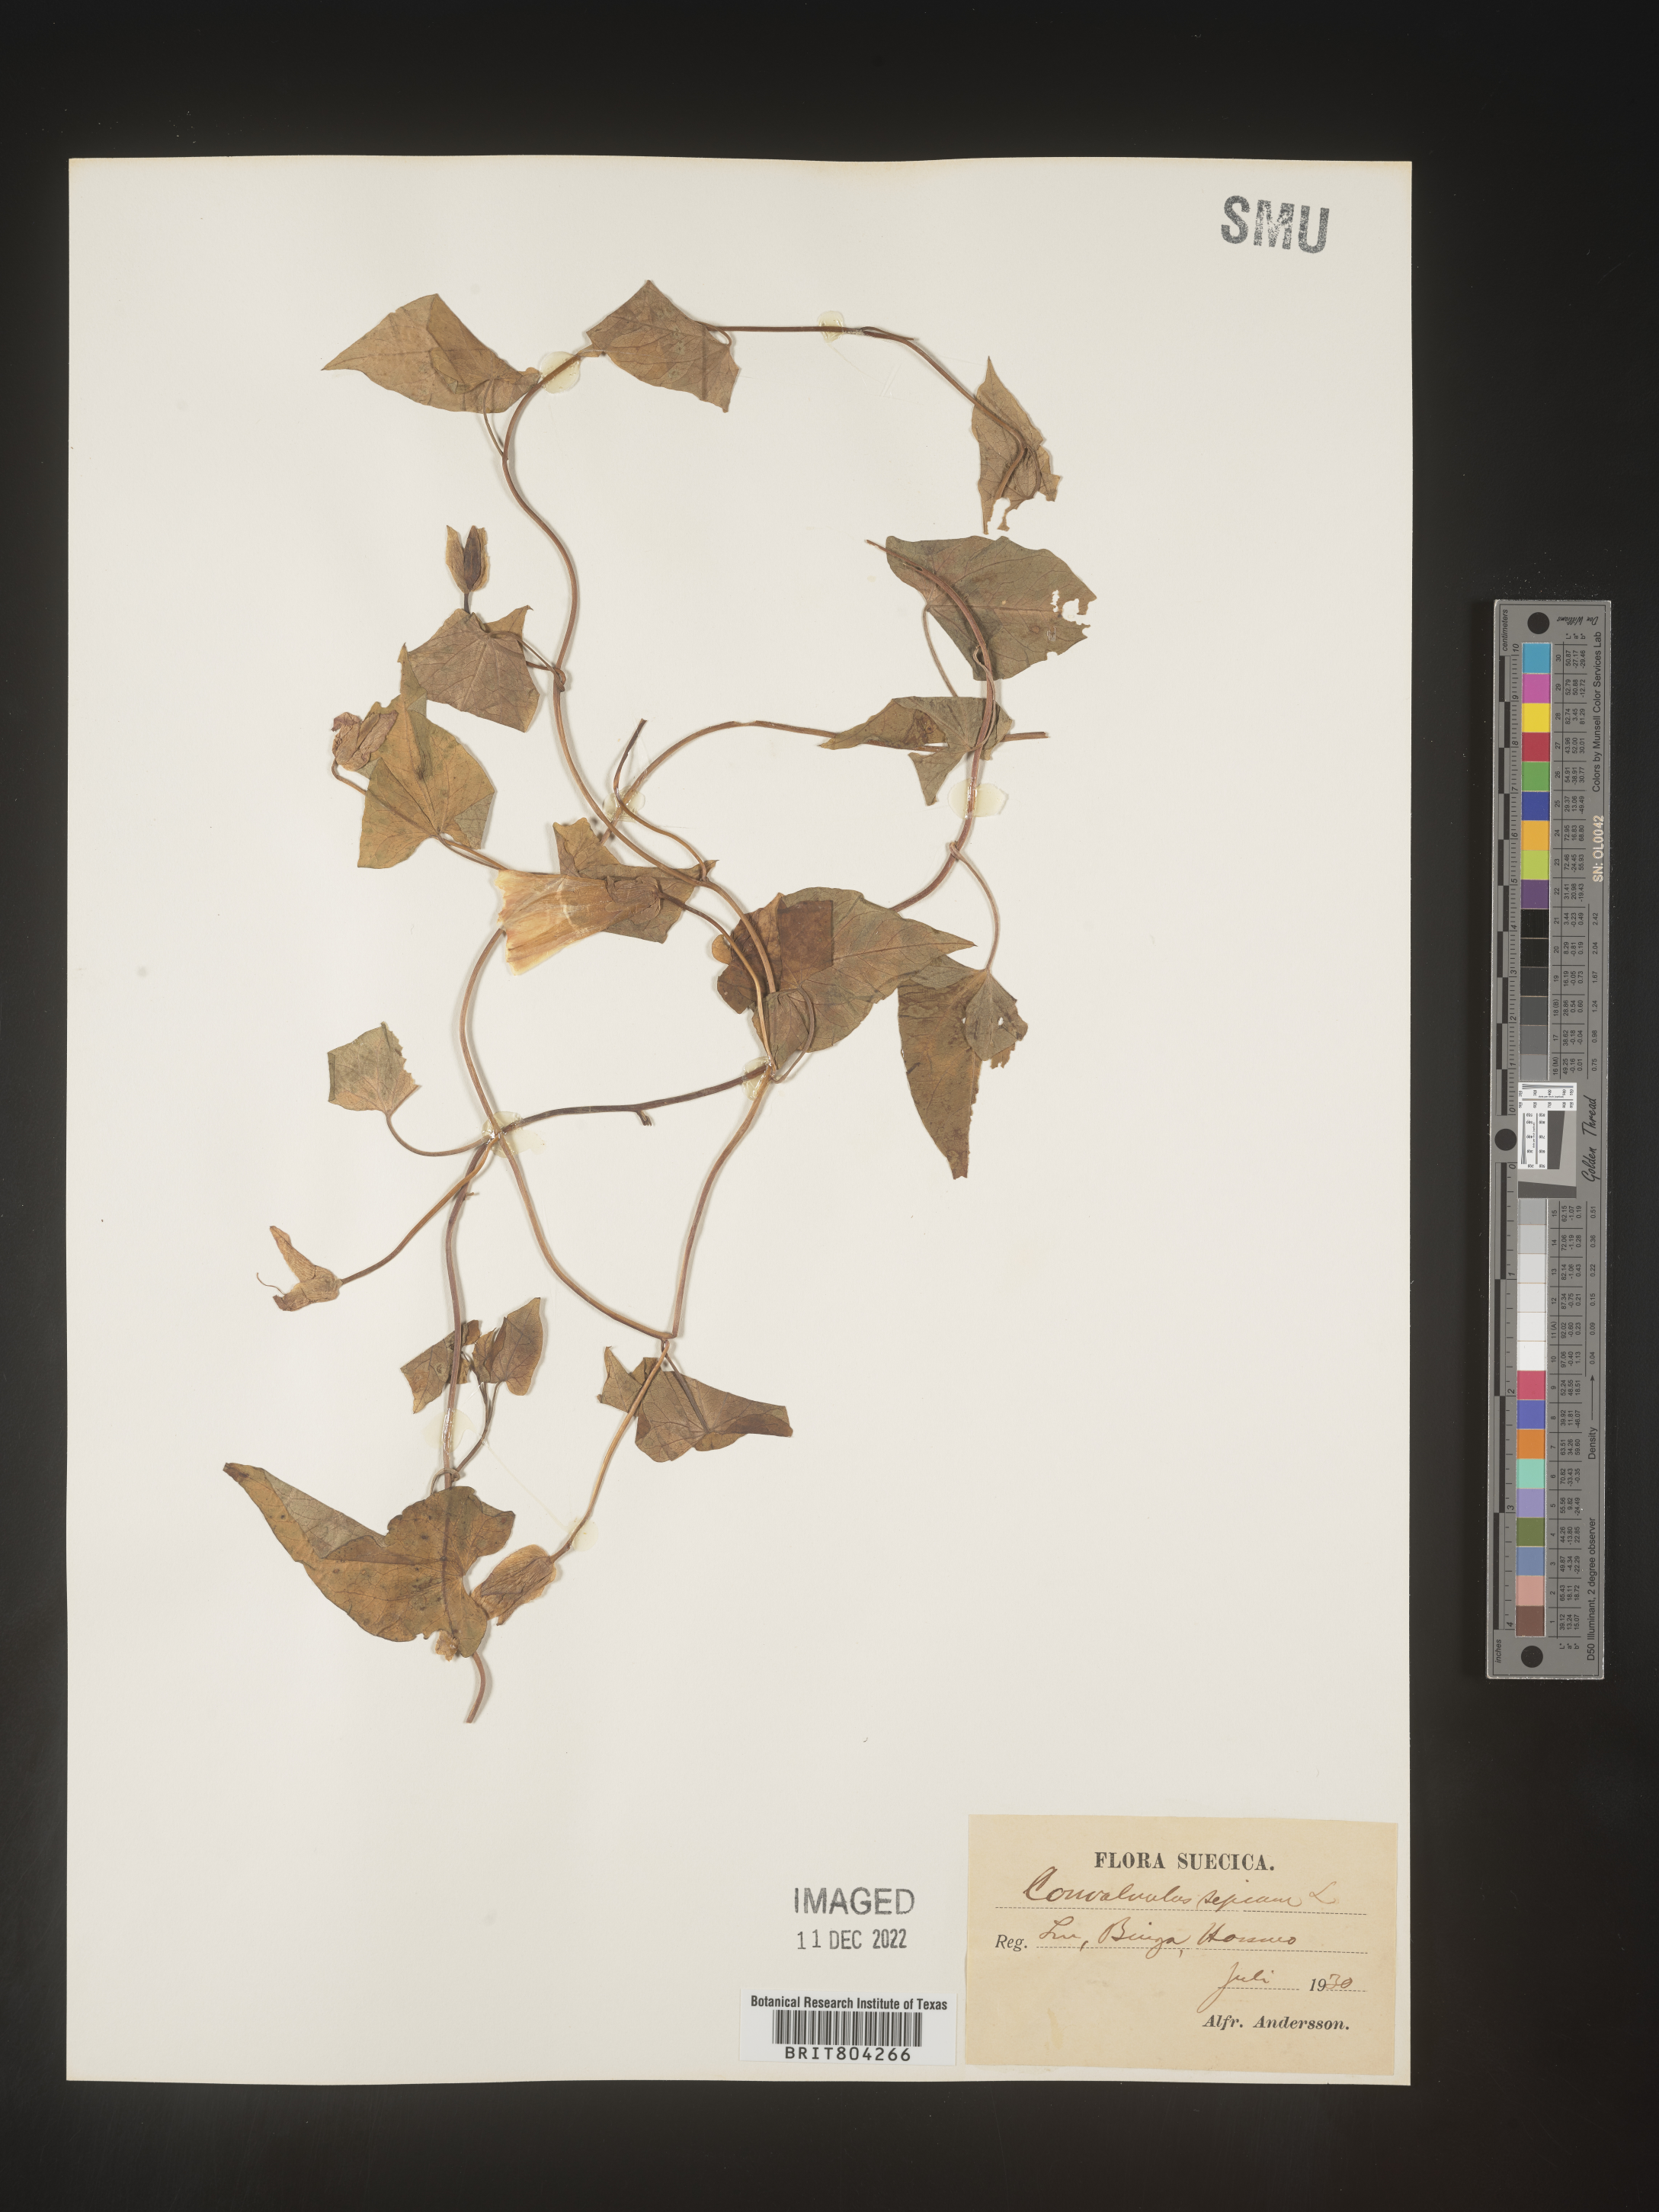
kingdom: Plantae
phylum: Tracheophyta
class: Magnoliopsida
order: Solanales
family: Convolvulaceae
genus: Calystegia
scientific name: Calystegia
